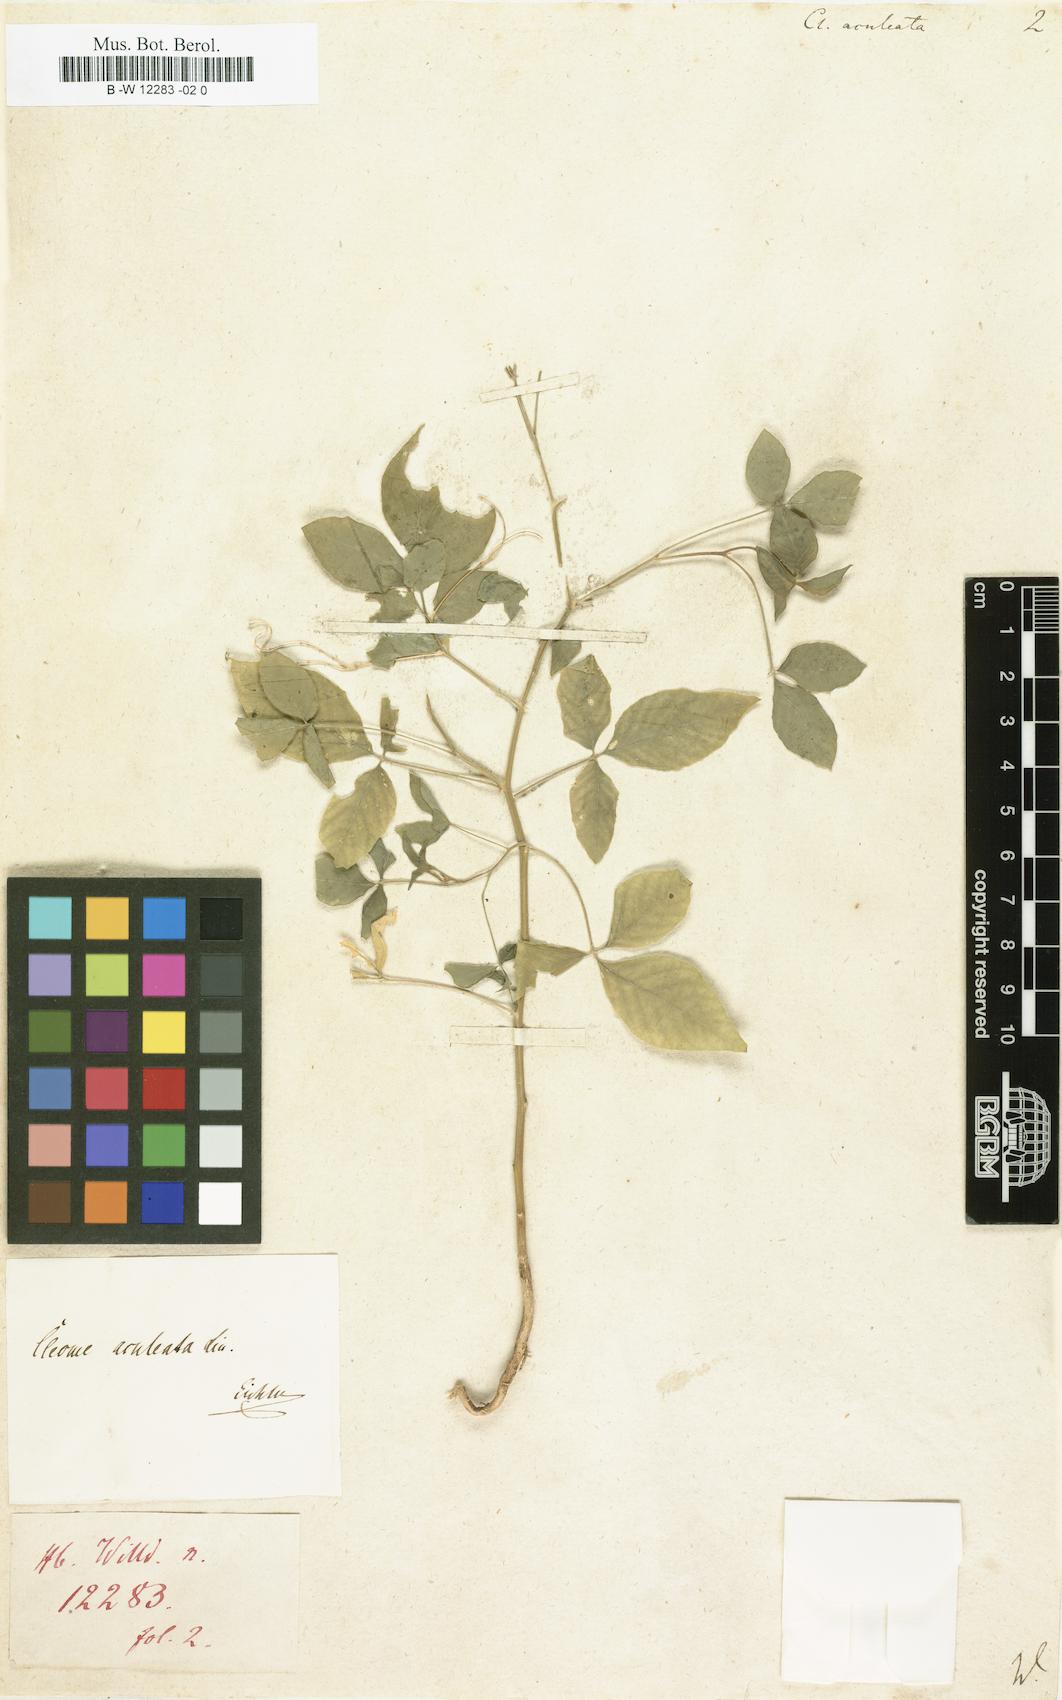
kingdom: Plantae
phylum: Tracheophyta
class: Magnoliopsida
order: Brassicales
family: Cleomaceae
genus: Tarenaya
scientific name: Tarenaya aculeata
